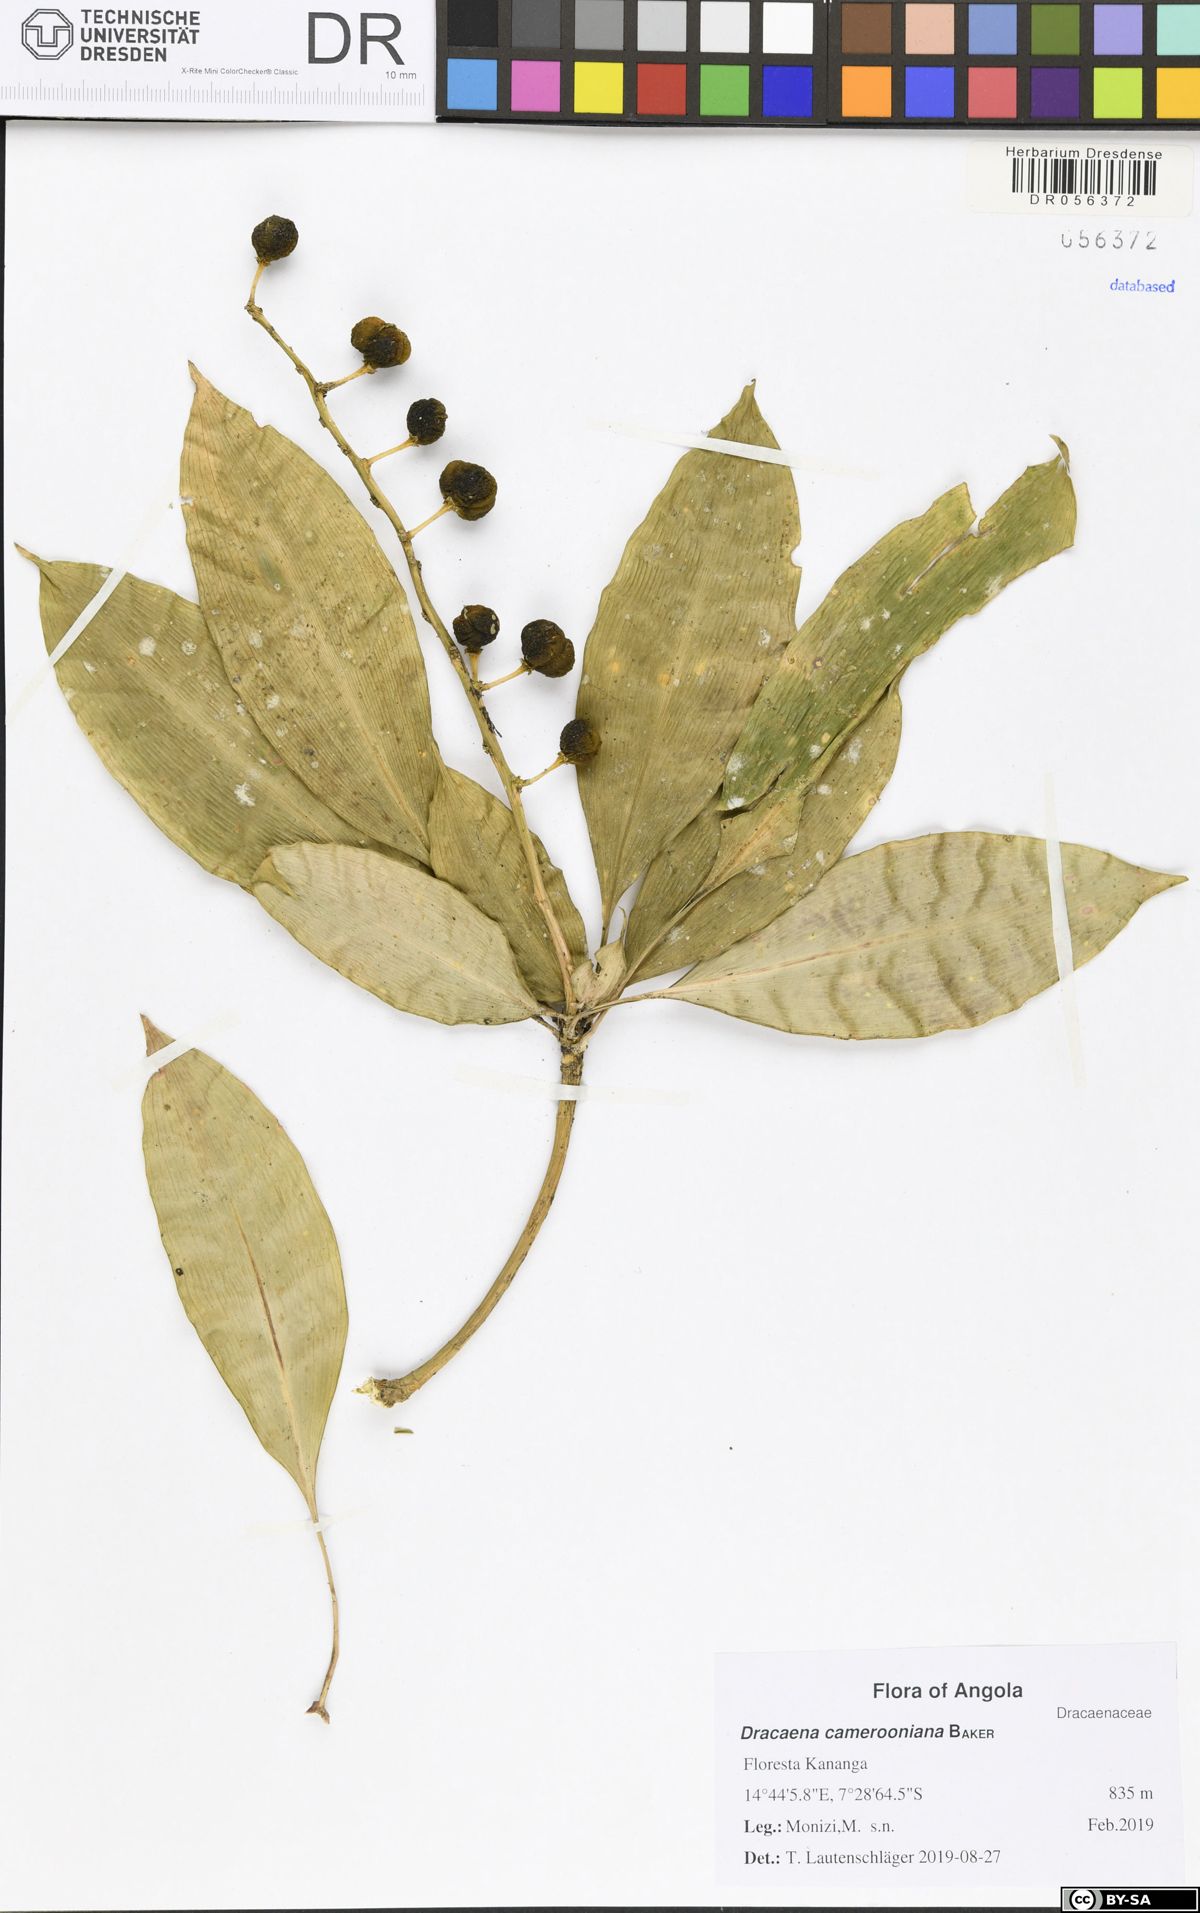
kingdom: Plantae
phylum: Tracheophyta
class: Liliopsida
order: Asparagales
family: Asparagaceae
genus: Dracaena
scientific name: Dracaena camerooniana
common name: Dragon tree
